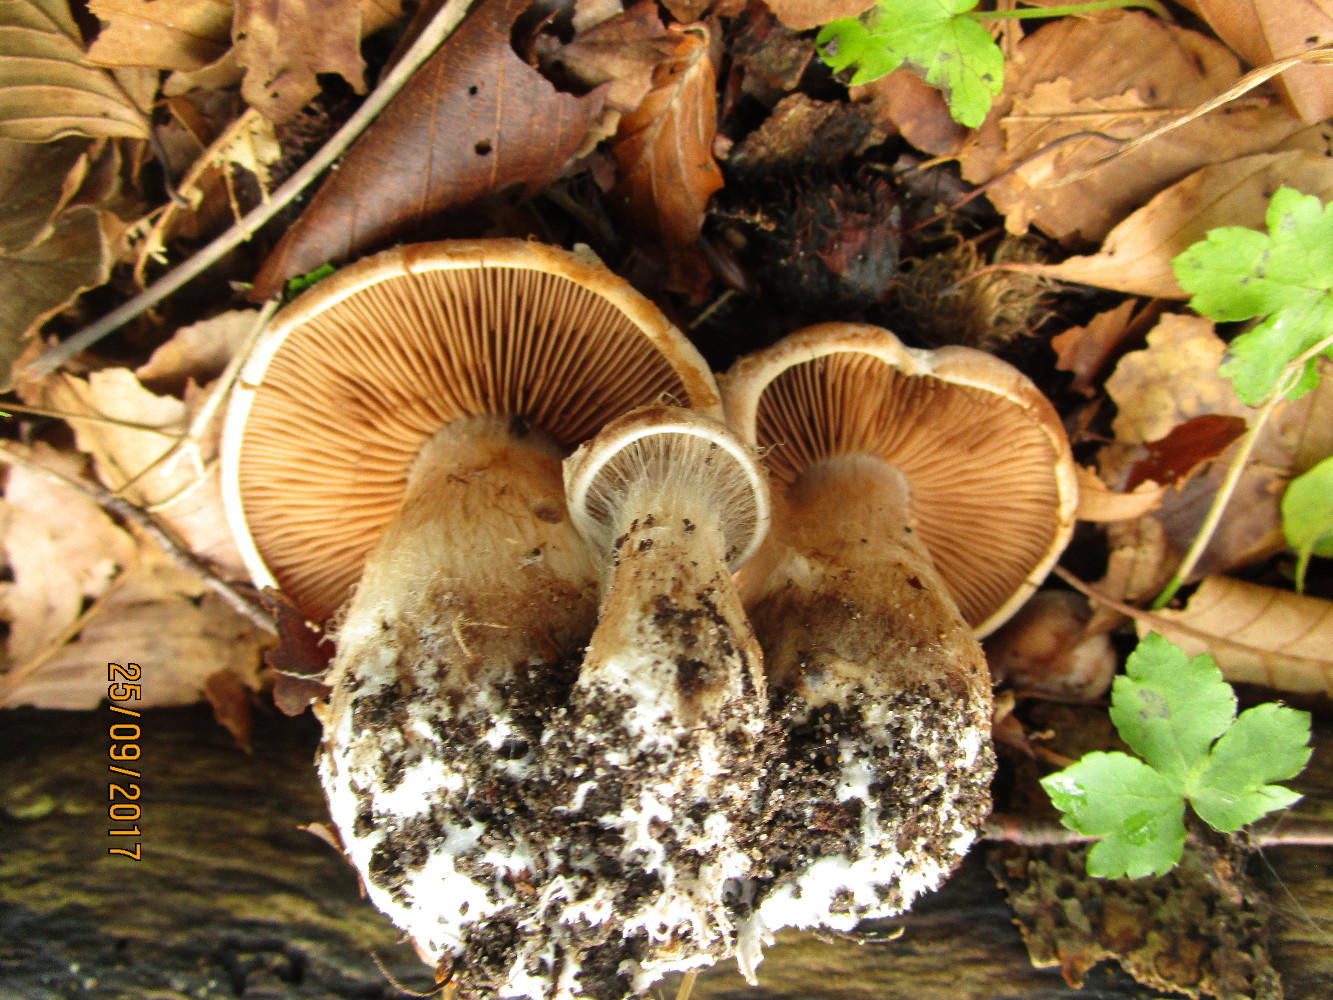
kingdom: Fungi
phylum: Basidiomycota
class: Agaricomycetes
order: Agaricales
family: Cortinariaceae
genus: Cortinarius
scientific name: Cortinarius
